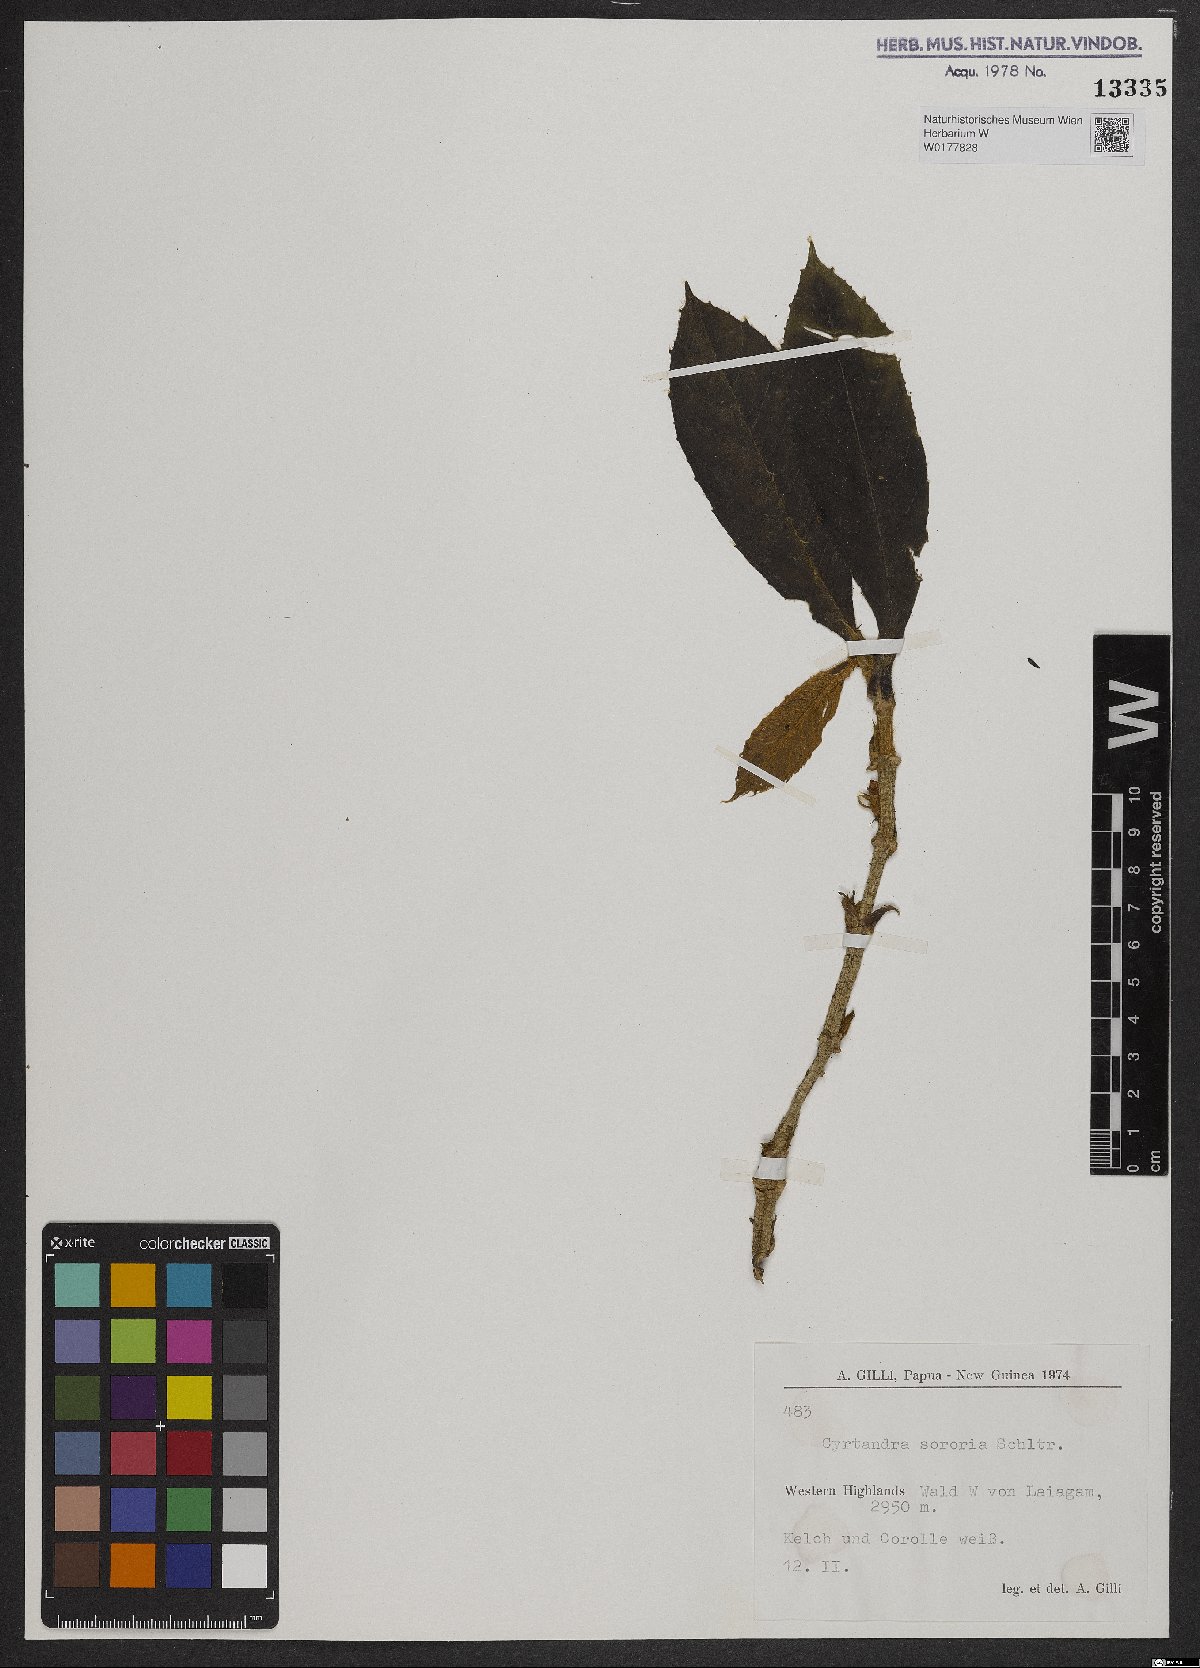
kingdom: Plantae
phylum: Tracheophyta
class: Magnoliopsida
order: Lamiales
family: Gesneriaceae
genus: Cyrtandra
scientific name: Cyrtandra
